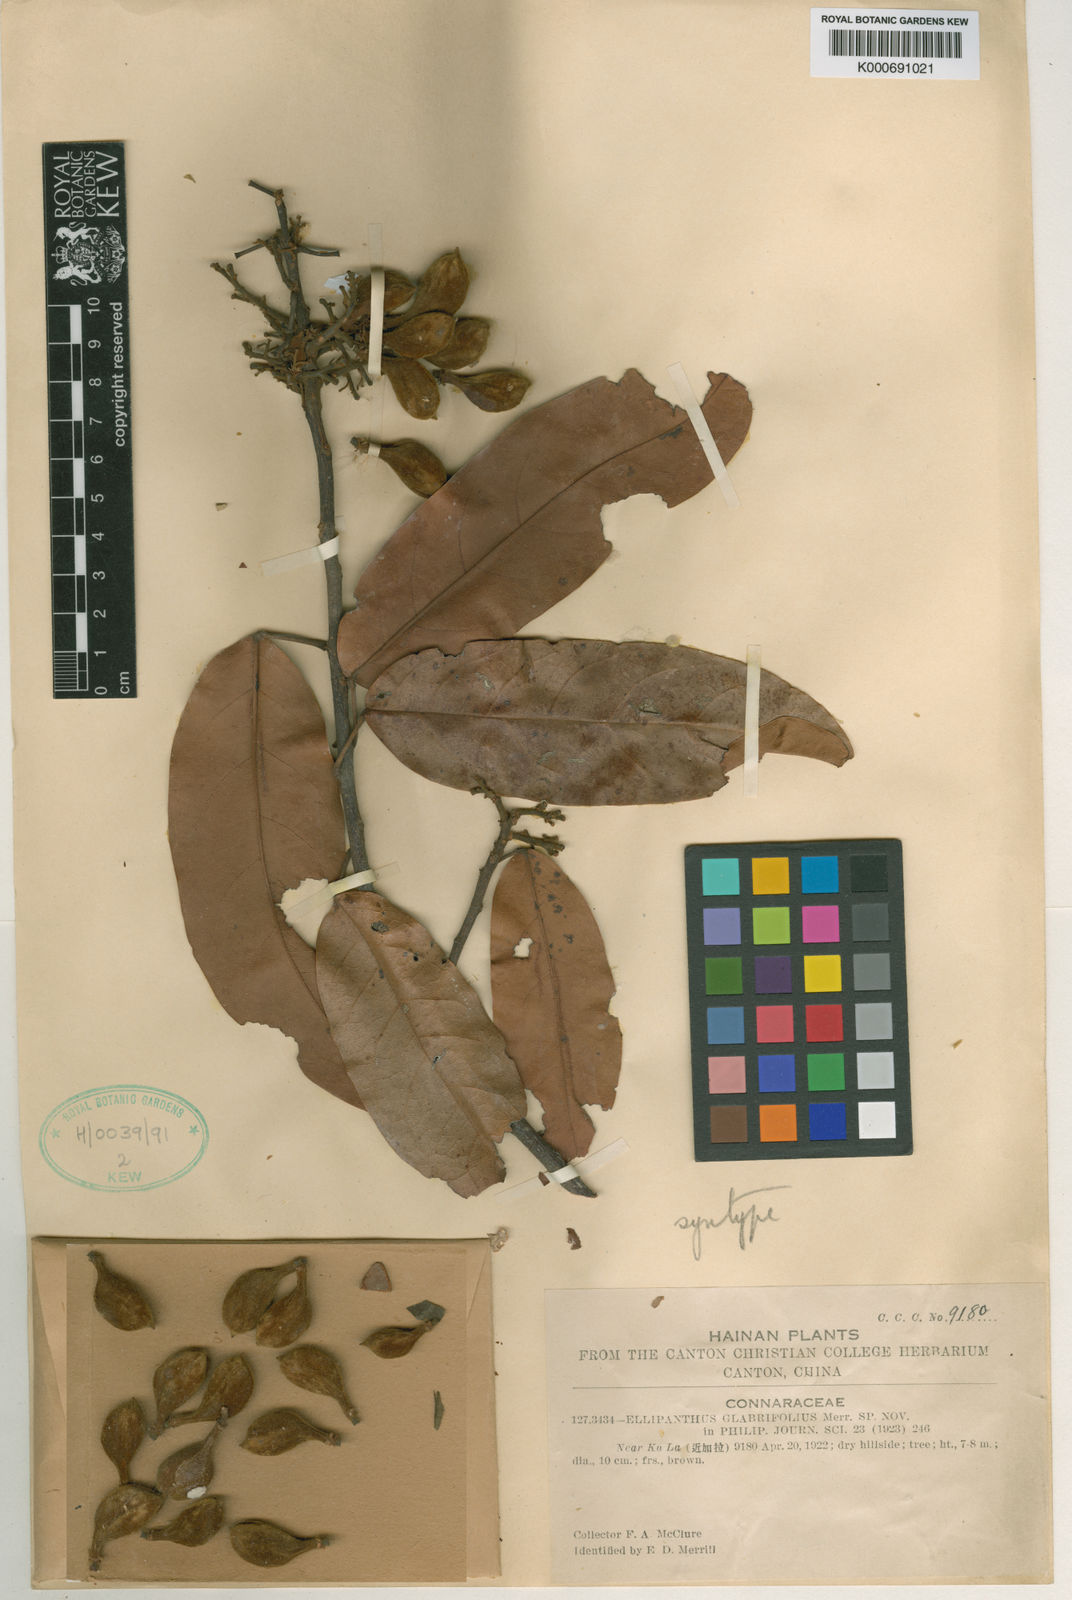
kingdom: Plantae
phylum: Tracheophyta
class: Magnoliopsida
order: Oxalidales
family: Connaraceae
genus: Ellipanthus
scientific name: Ellipanthus glabrifolius
